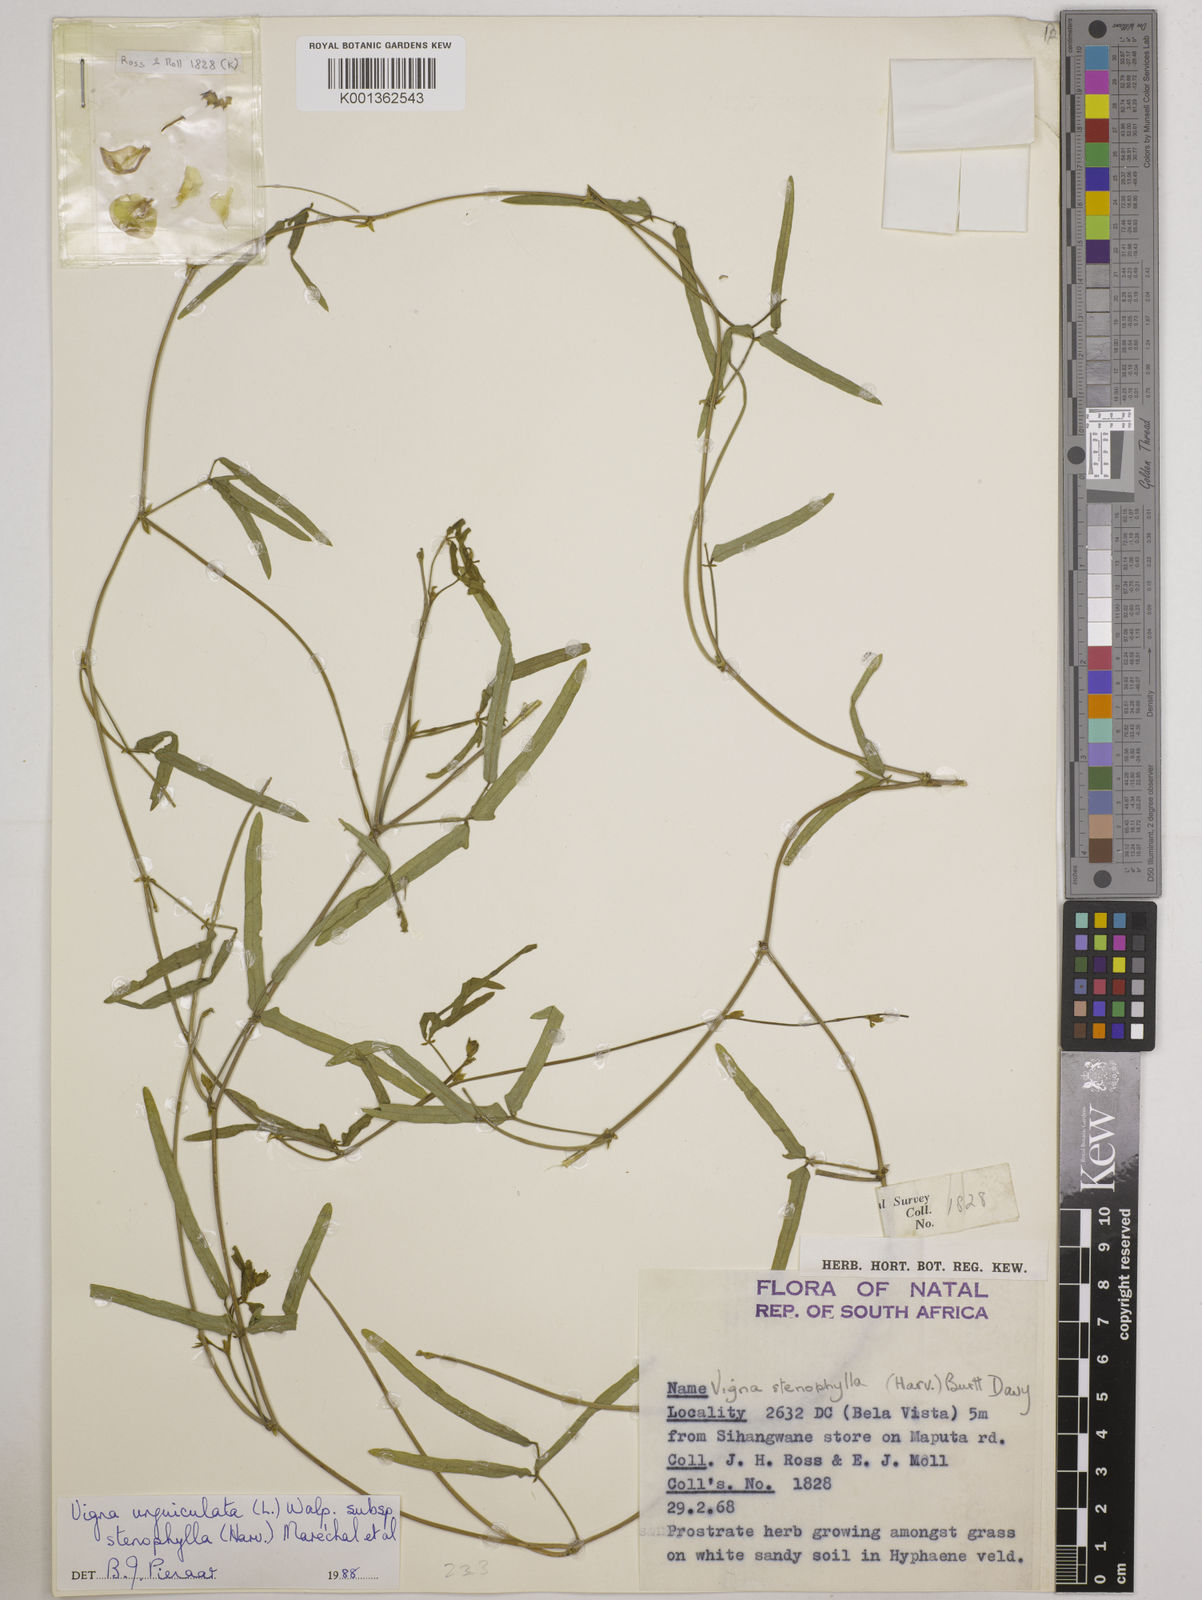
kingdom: Plantae
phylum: Tracheophyta
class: Magnoliopsida
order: Fabales
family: Fabaceae
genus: Vigna
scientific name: Vigna
